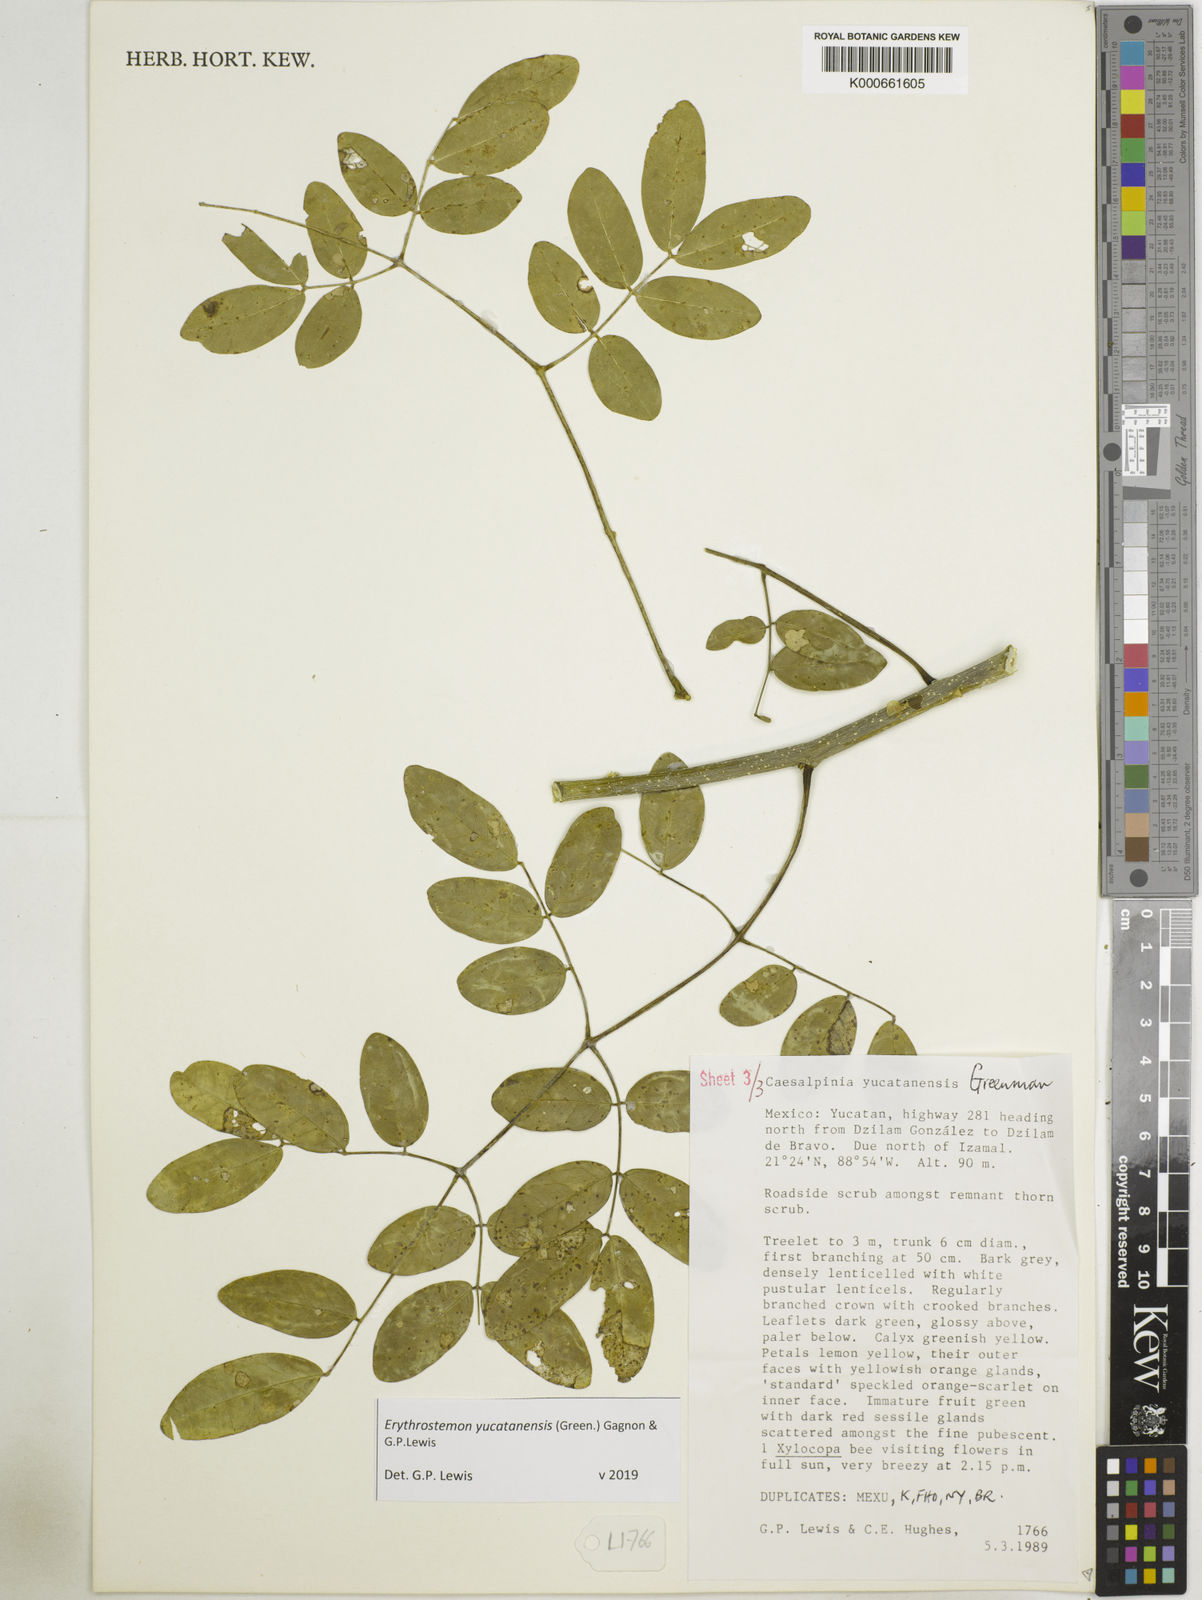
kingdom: Plantae
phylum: Tracheophyta
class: Magnoliopsida
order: Fabales
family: Fabaceae
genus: Caesalpinia
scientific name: Caesalpinia
